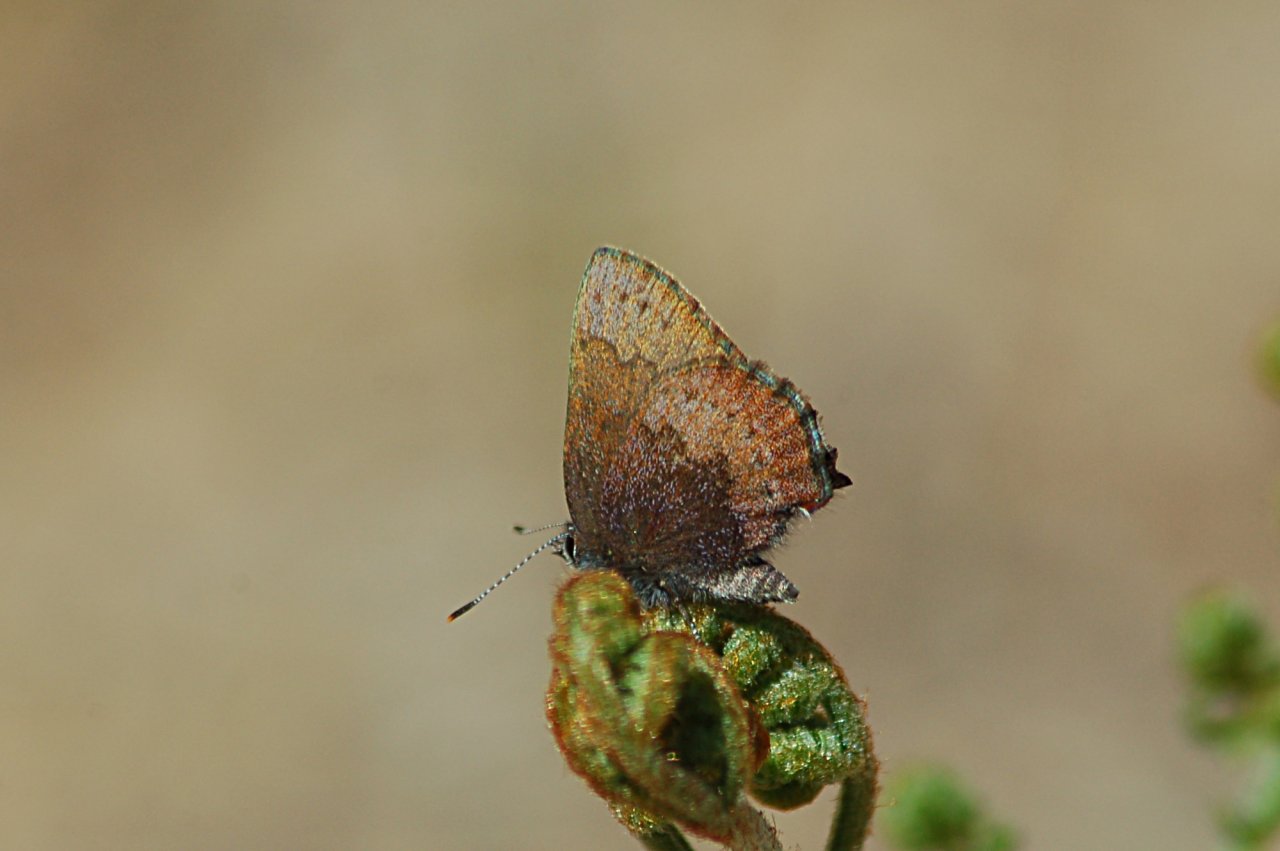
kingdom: Animalia
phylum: Arthropoda
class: Insecta
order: Lepidoptera
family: Lycaenidae
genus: Incisalia
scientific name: Incisalia irioides
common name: Brown Elfin
